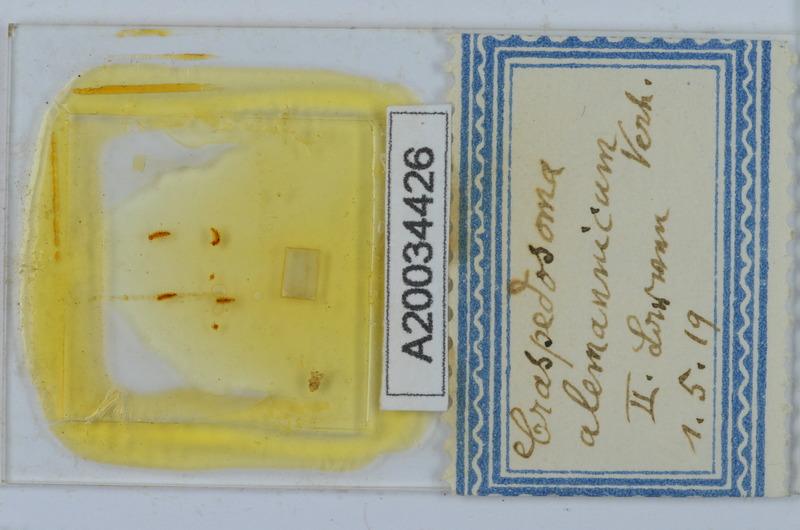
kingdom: Animalia
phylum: Arthropoda
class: Diplopoda
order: Chordeumatida
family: Craspedosomatidae
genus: Craspedosoma
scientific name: Craspedosoma alemannicum
